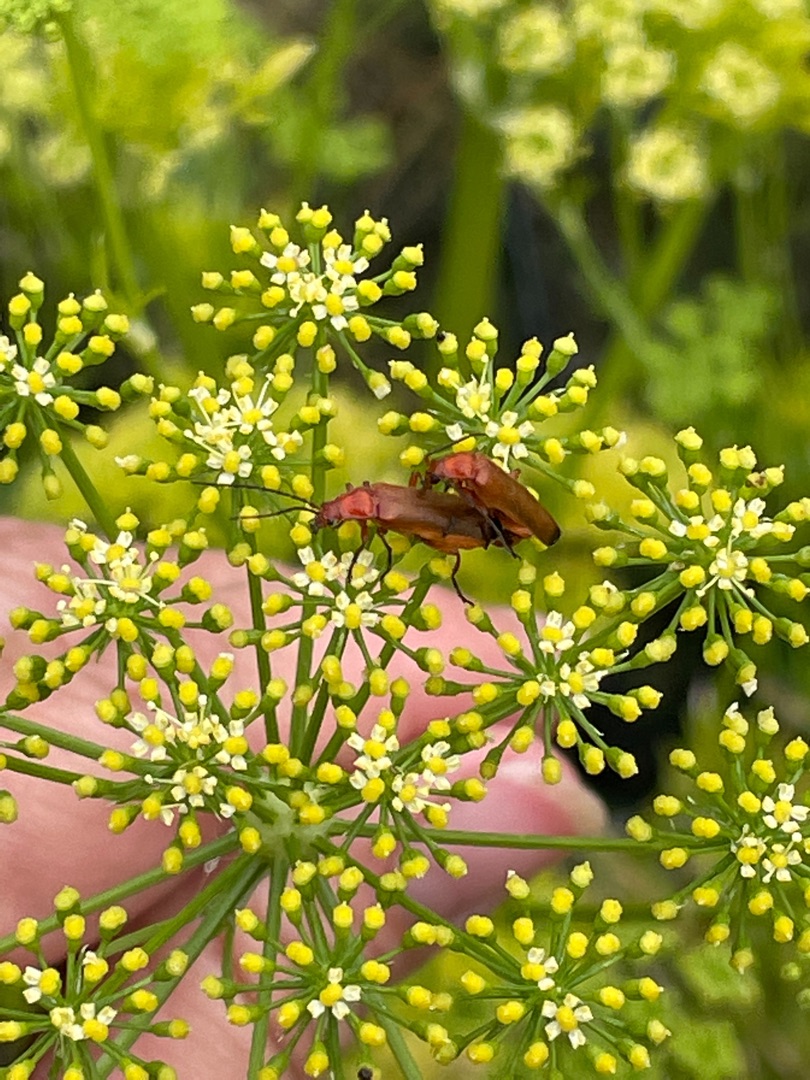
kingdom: Animalia
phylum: Arthropoda
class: Insecta
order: Coleoptera
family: Cantharidae
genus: Rhagonycha
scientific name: Rhagonycha fulva
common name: Præstebille
